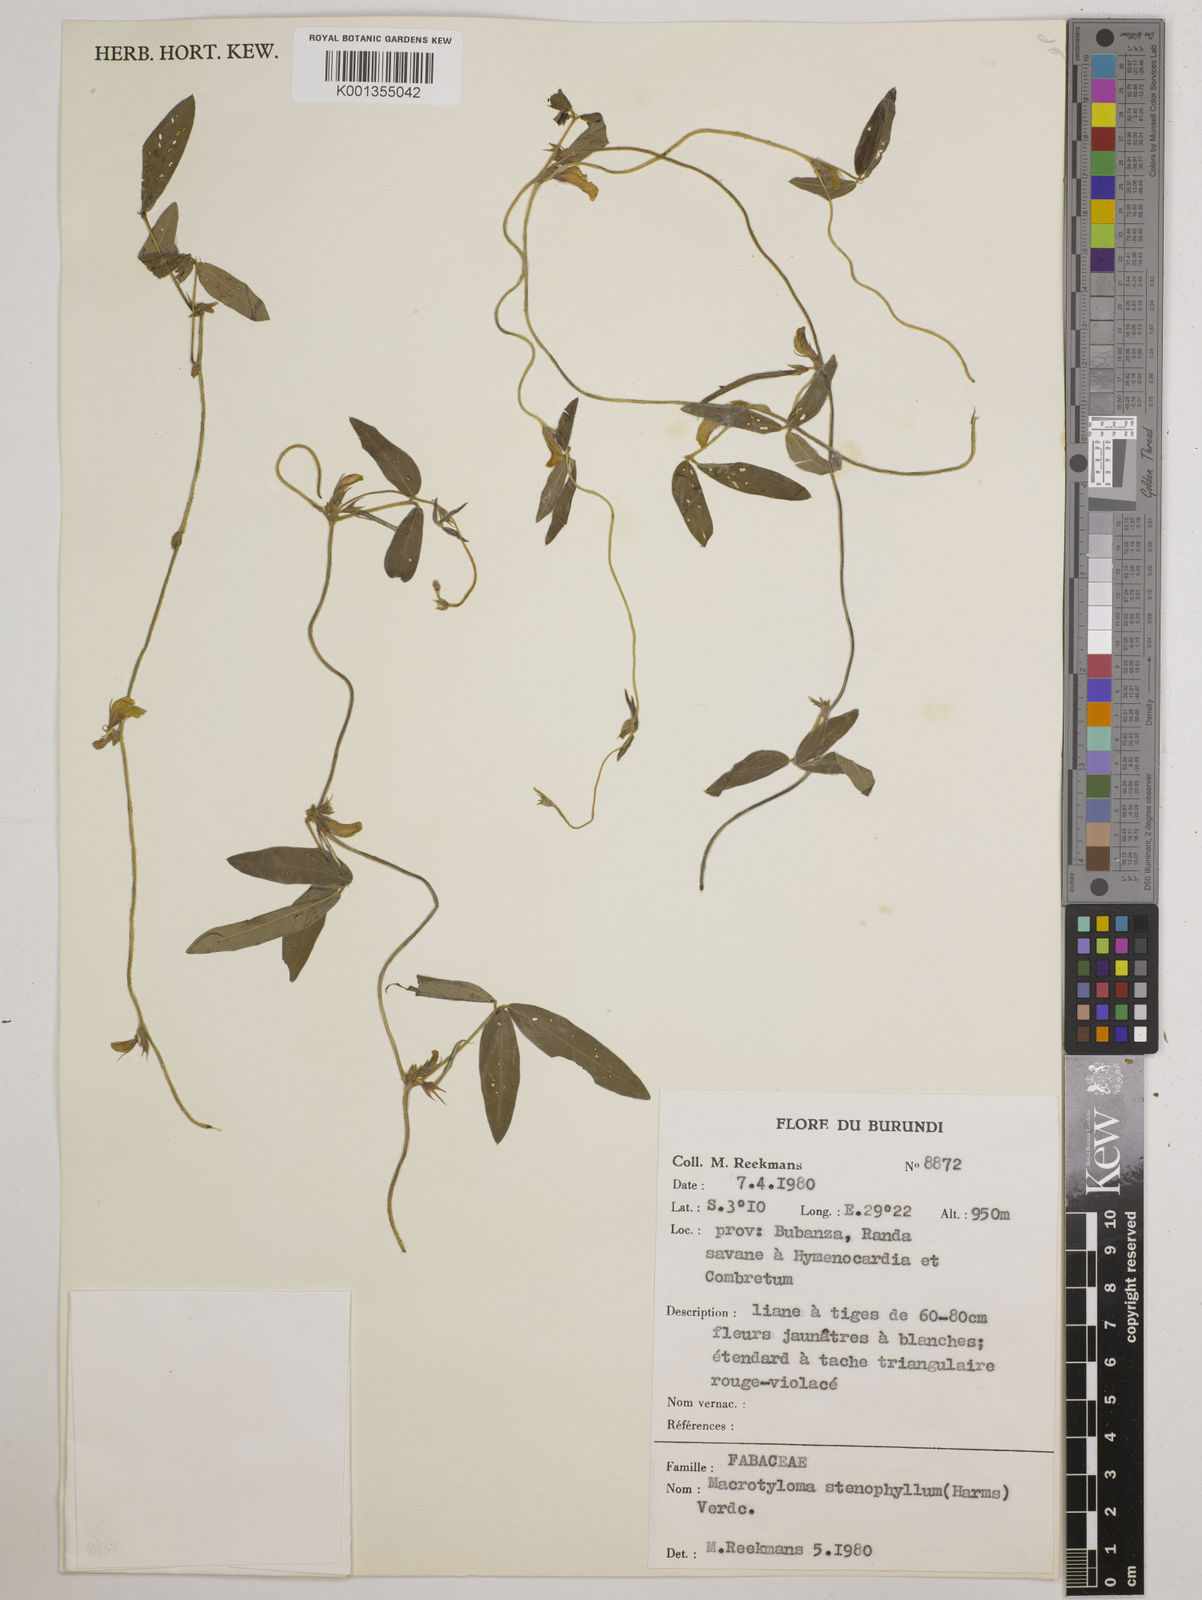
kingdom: Plantae
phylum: Tracheophyta
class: Magnoliopsida
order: Fabales
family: Fabaceae
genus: Macrotyloma
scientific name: Macrotyloma stenophyllum
